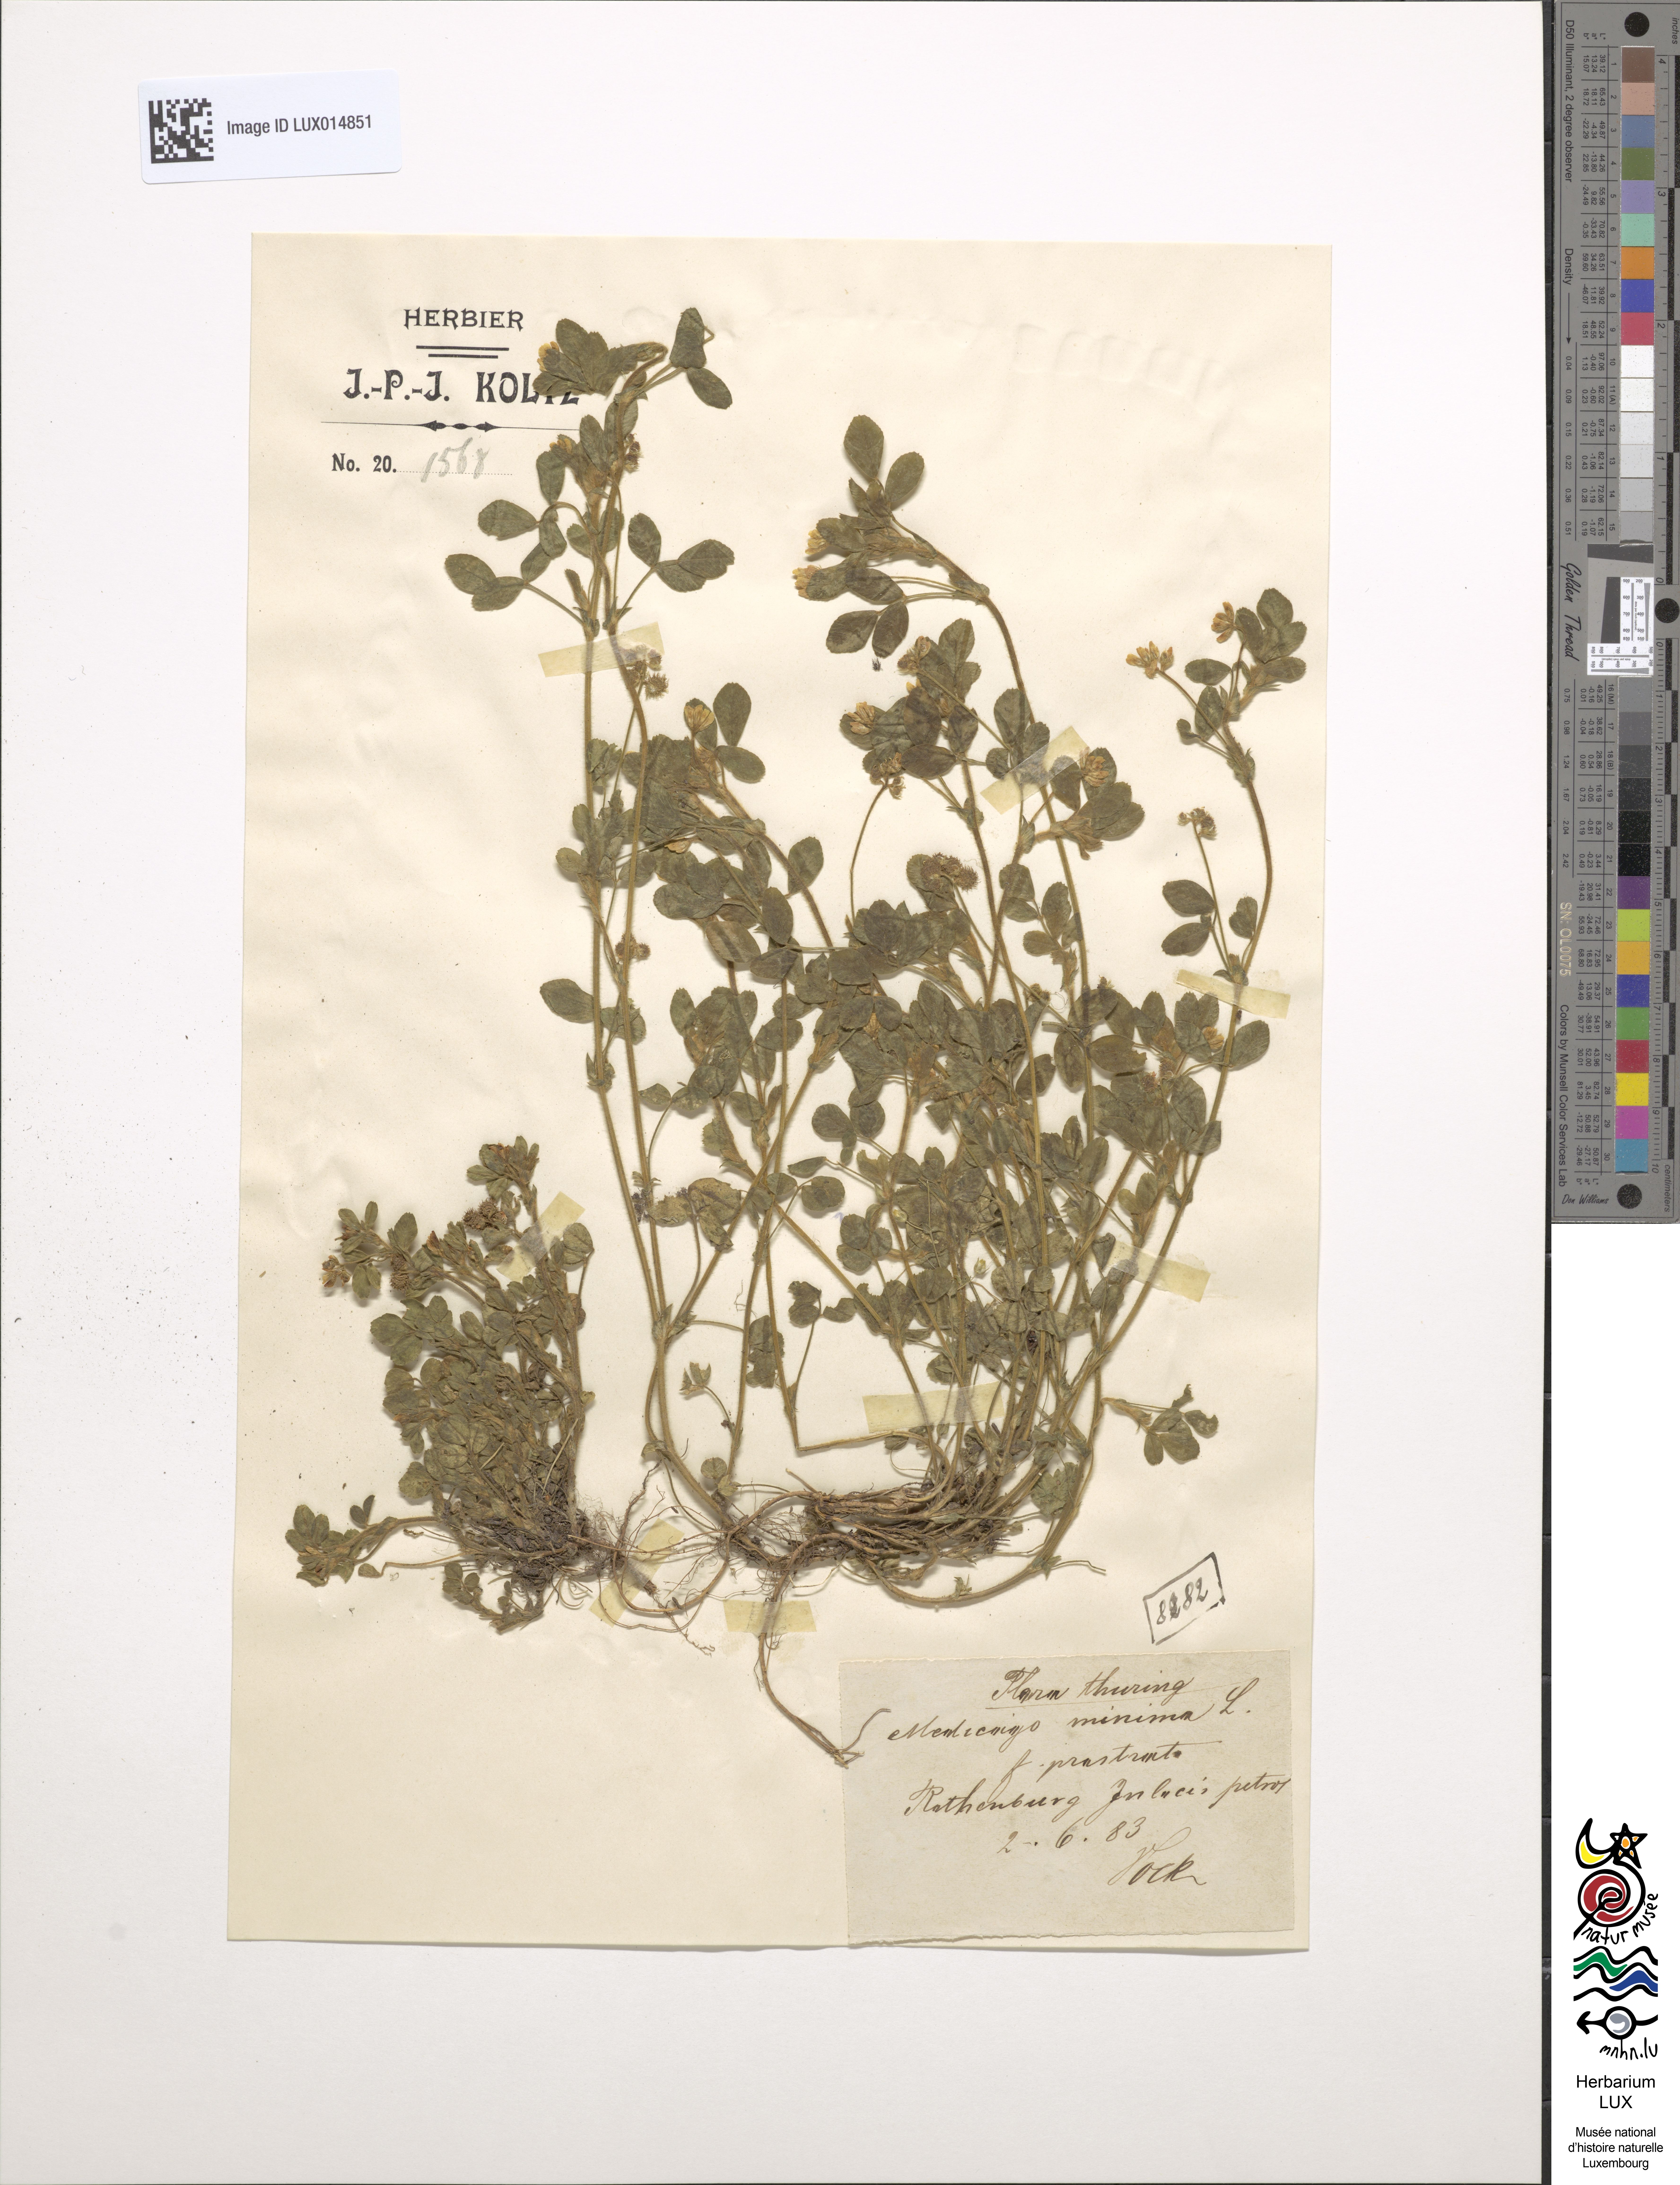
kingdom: Plantae
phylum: Tracheophyta
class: Magnoliopsida
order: Fabales
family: Fabaceae
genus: Medicago
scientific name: Medicago minima
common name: Little bur-clover
